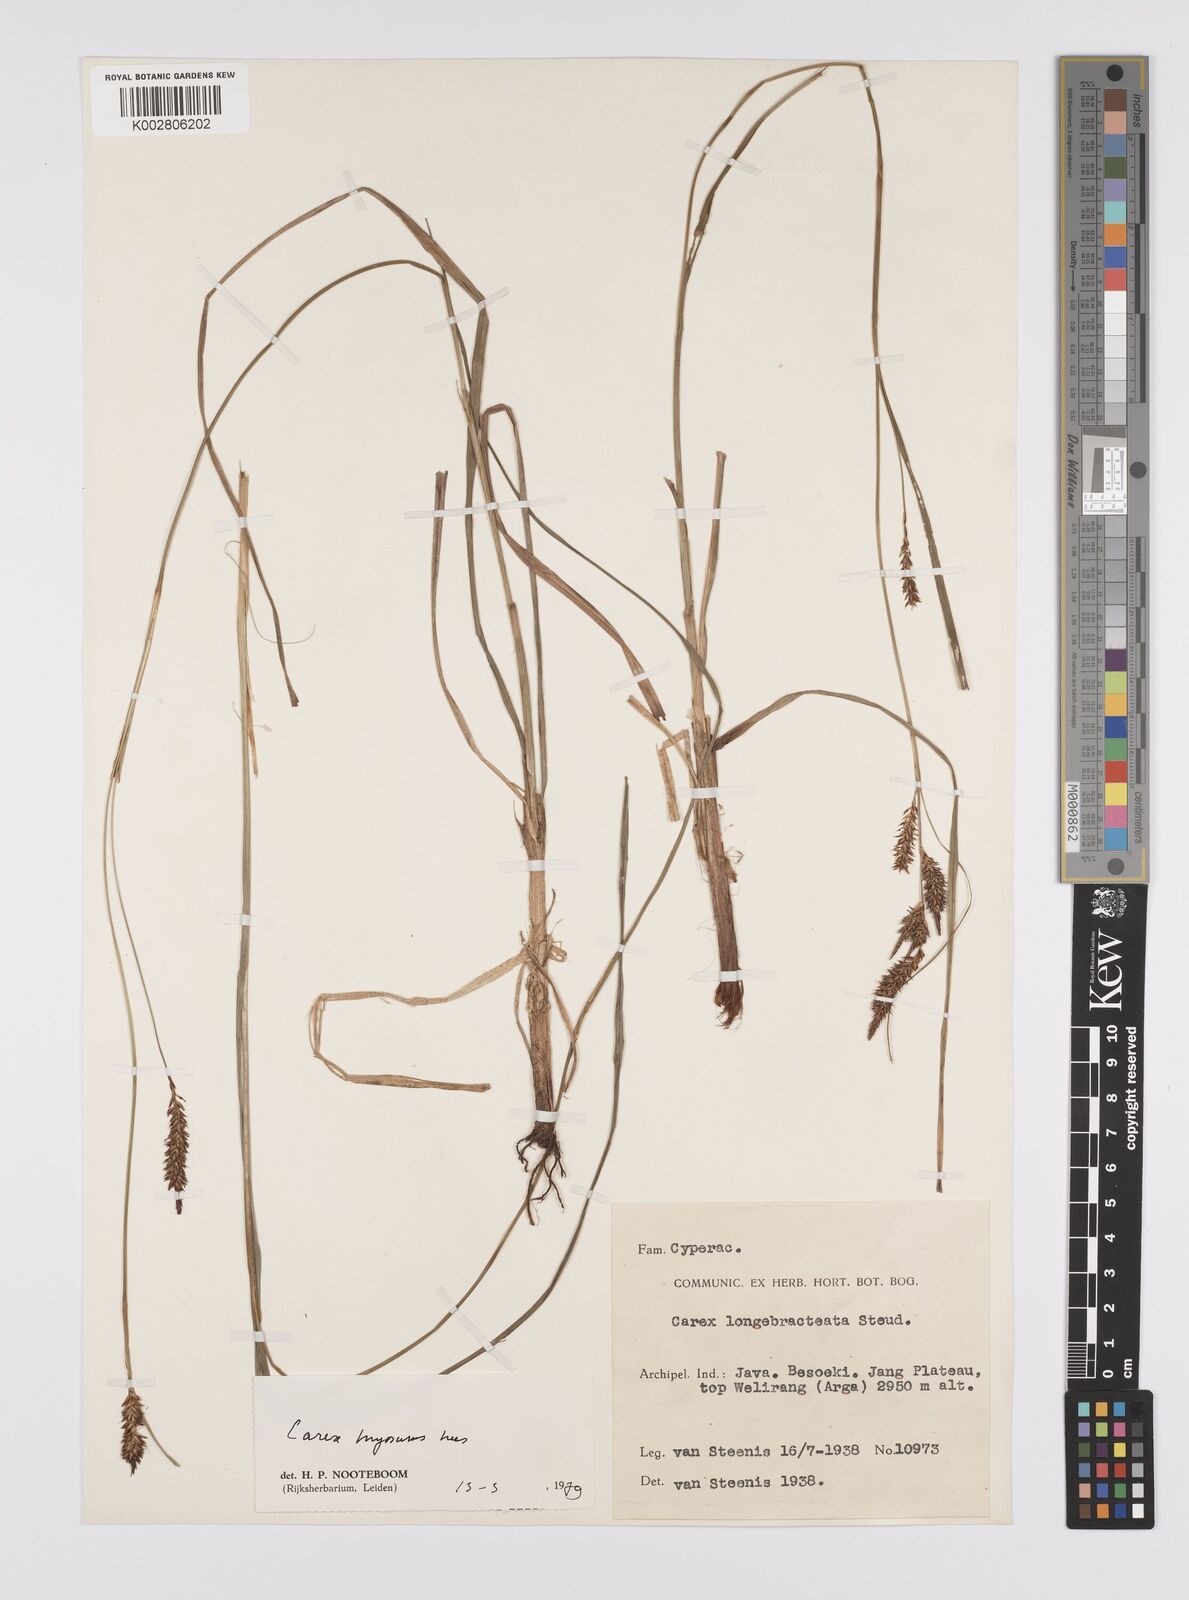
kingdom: Plantae
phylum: Tracheophyta
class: Liliopsida
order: Poales
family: Cyperaceae
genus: Carex
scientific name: Carex myosurus
